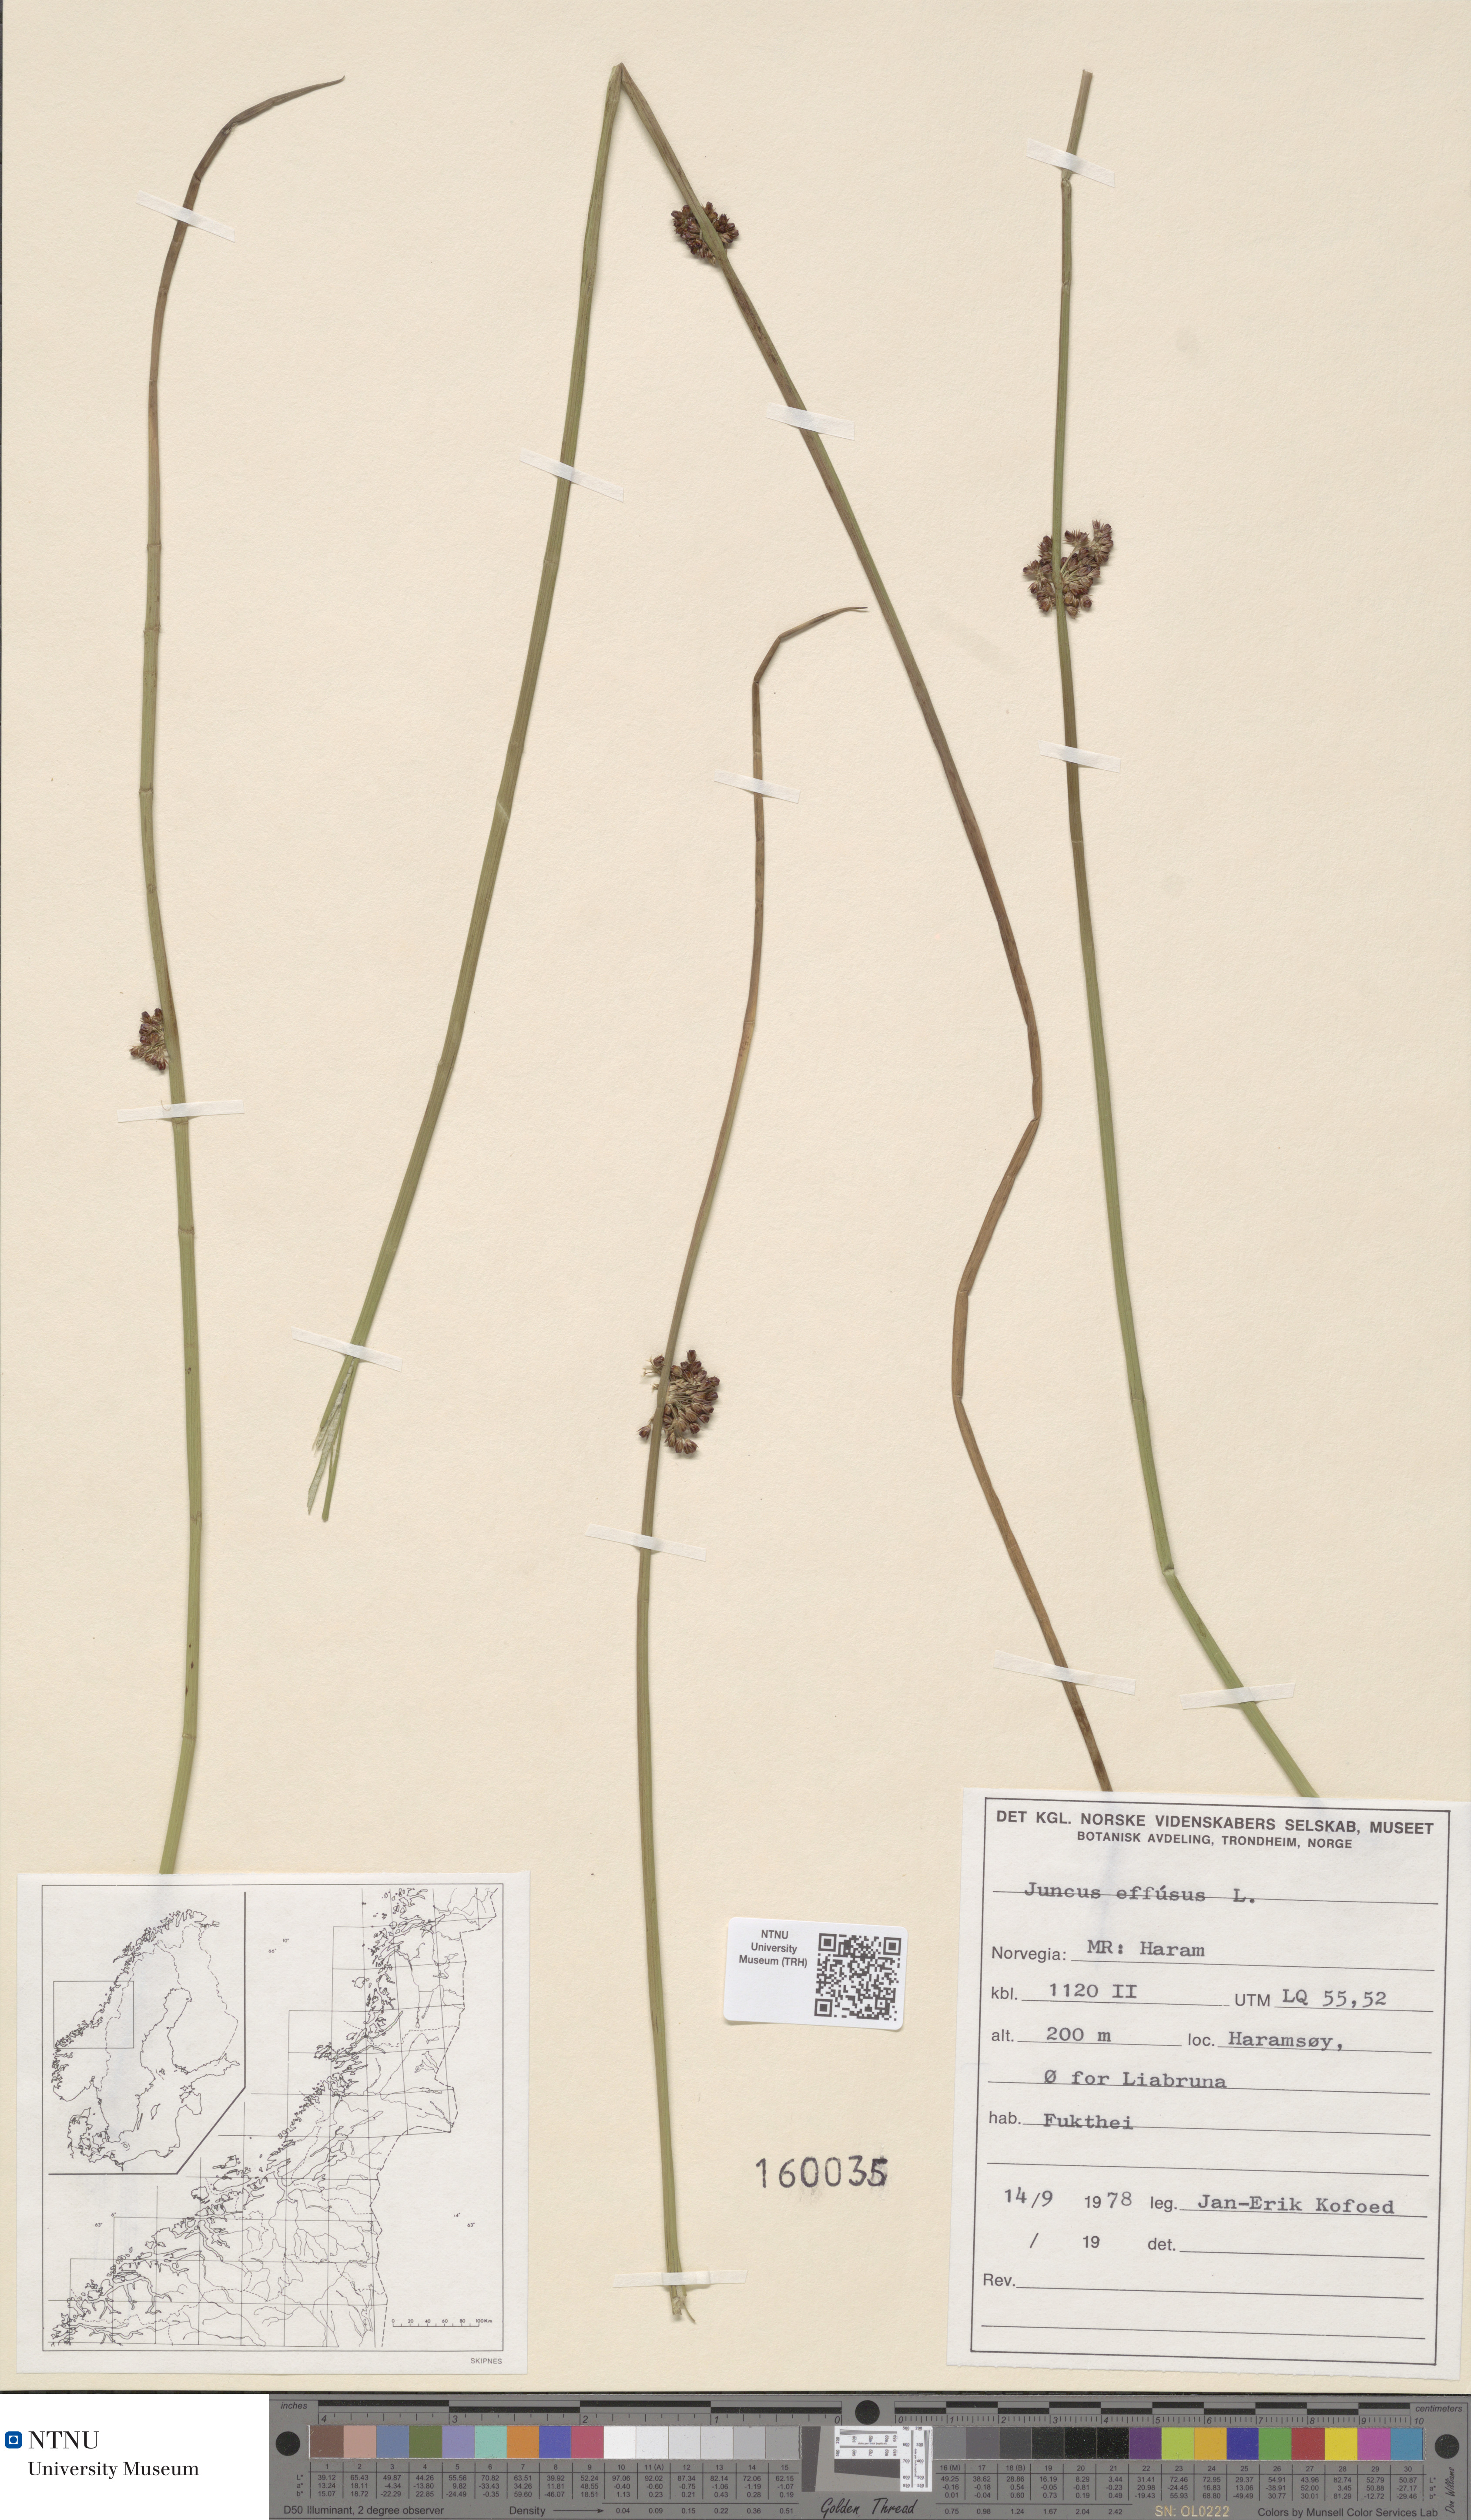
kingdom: Plantae
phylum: Tracheophyta
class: Liliopsida
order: Poales
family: Juncaceae
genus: Juncus
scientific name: Juncus effusus
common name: Soft rush
